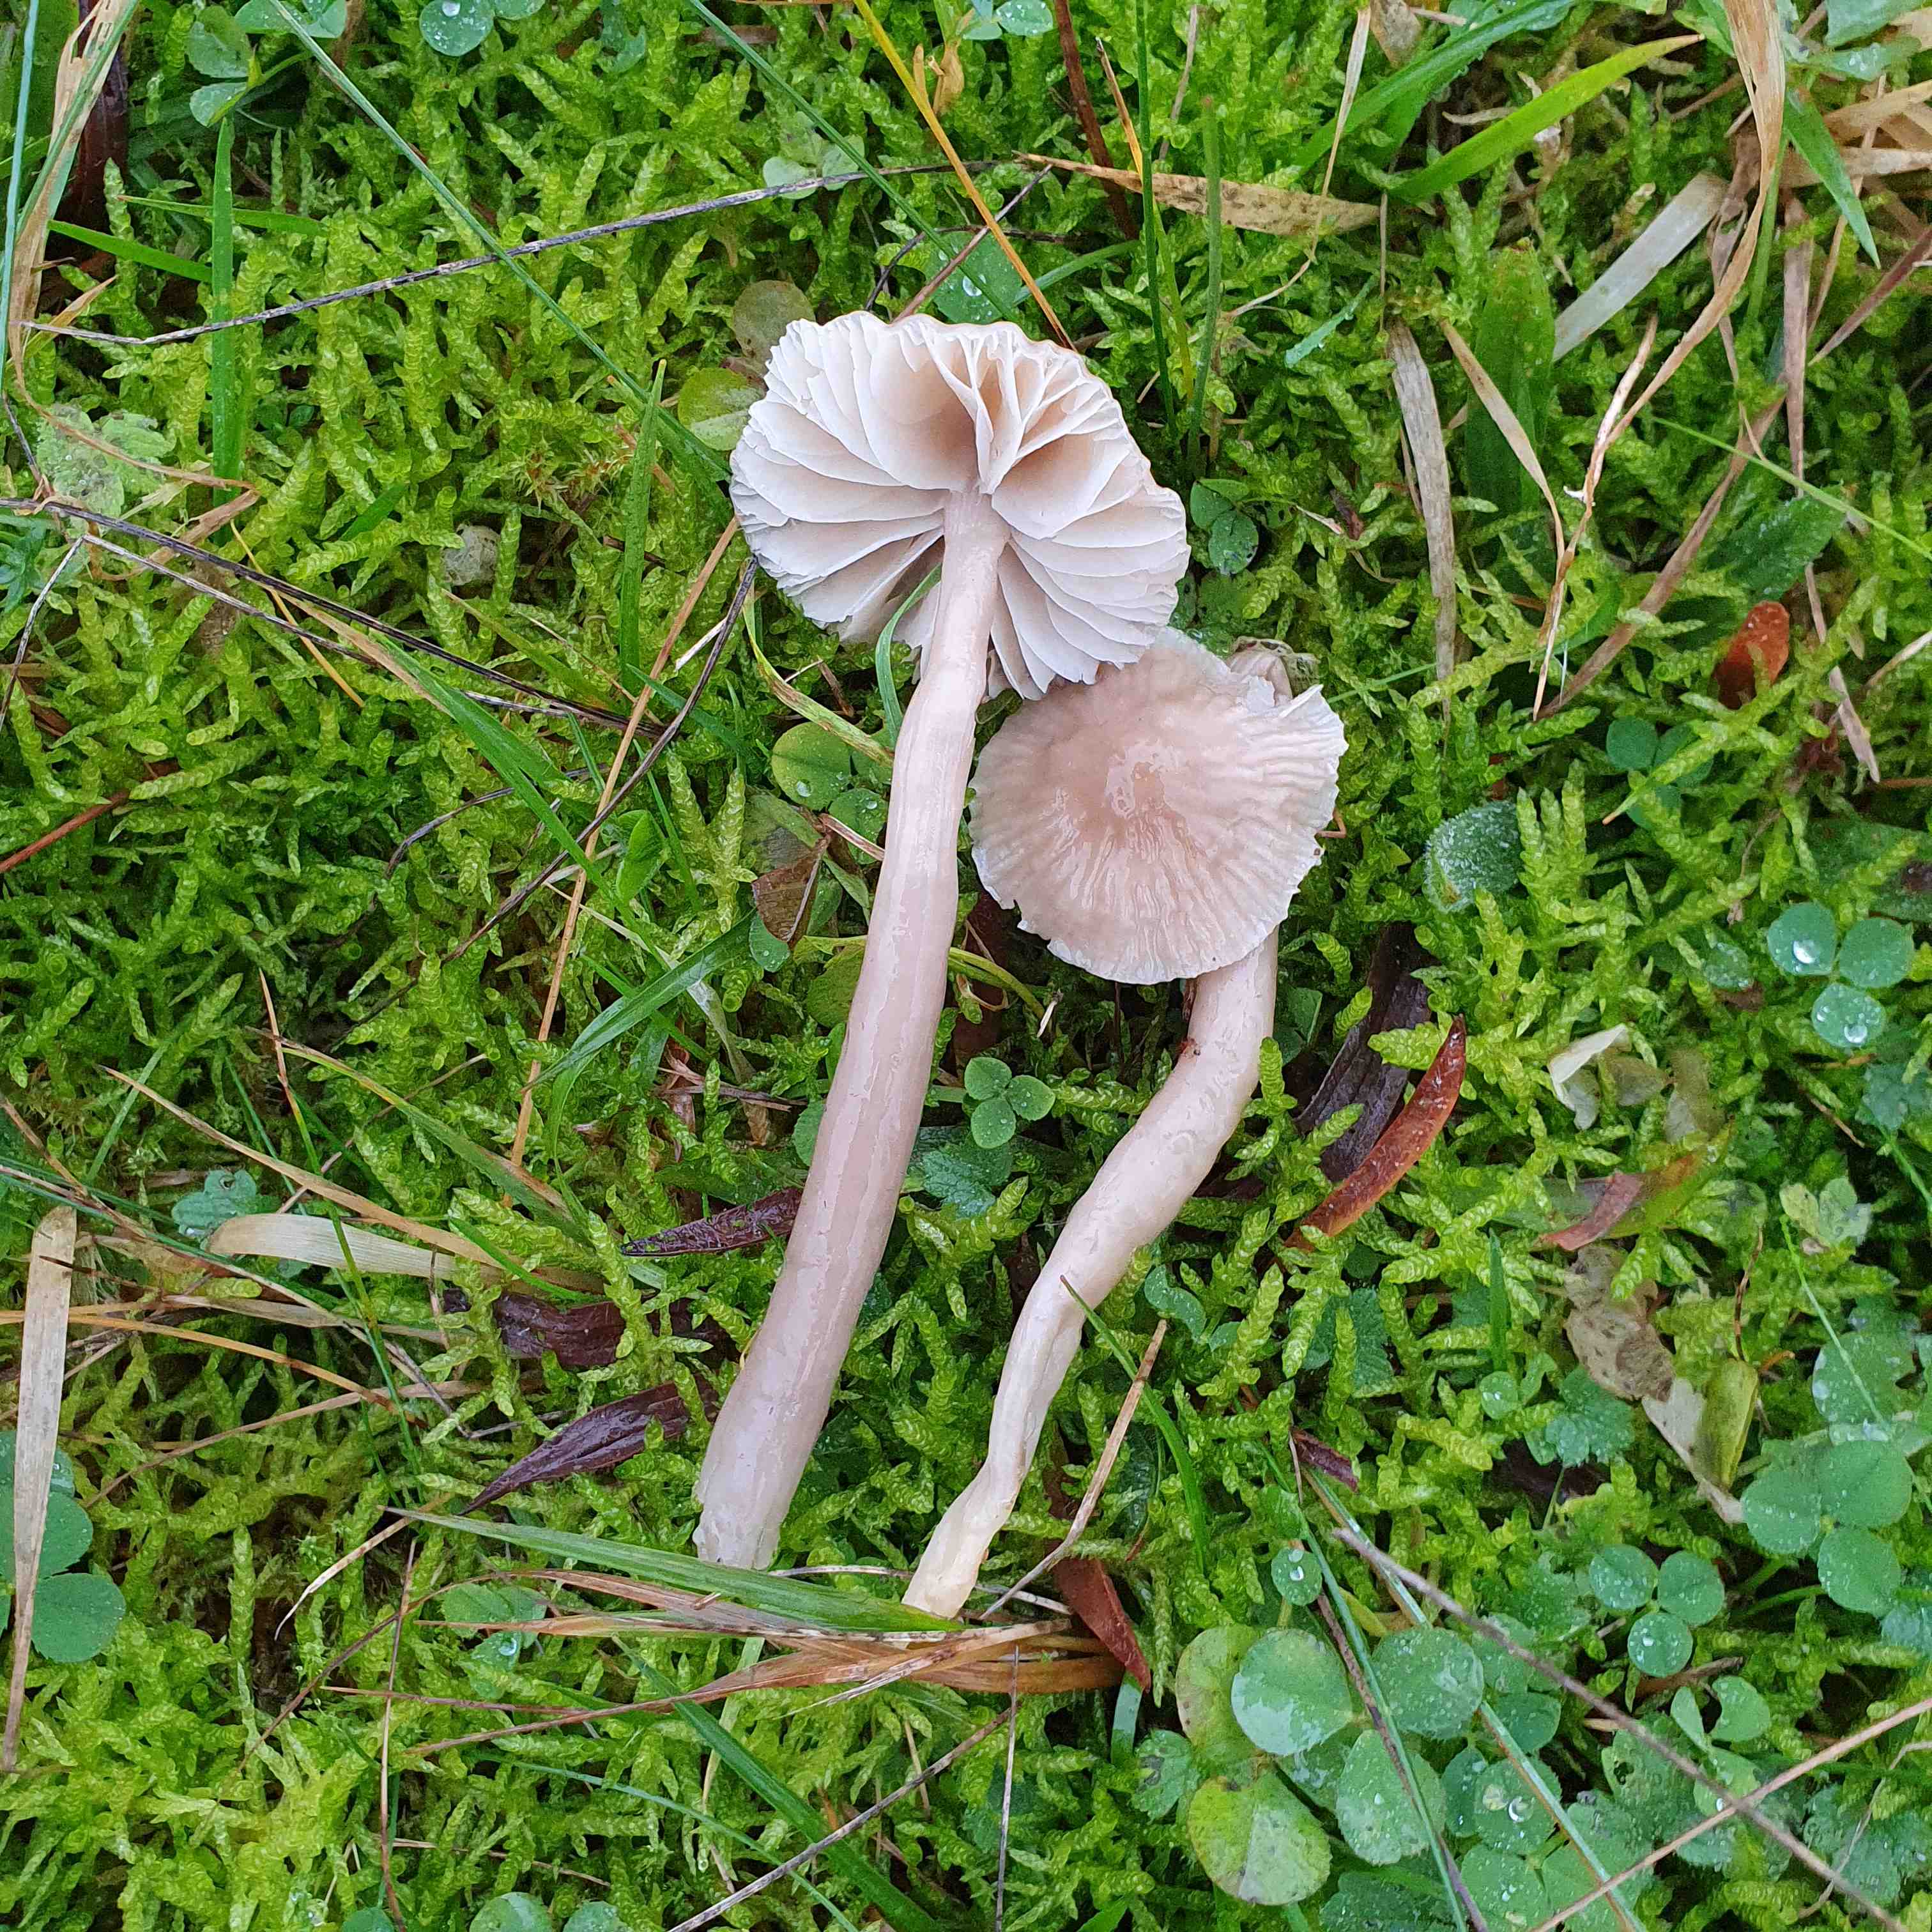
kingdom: Fungi
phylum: Basidiomycota
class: Agaricomycetes
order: Agaricales
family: Hygrophoraceae
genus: Gliophorus
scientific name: Gliophorus irrigatus
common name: slimet vokshat
